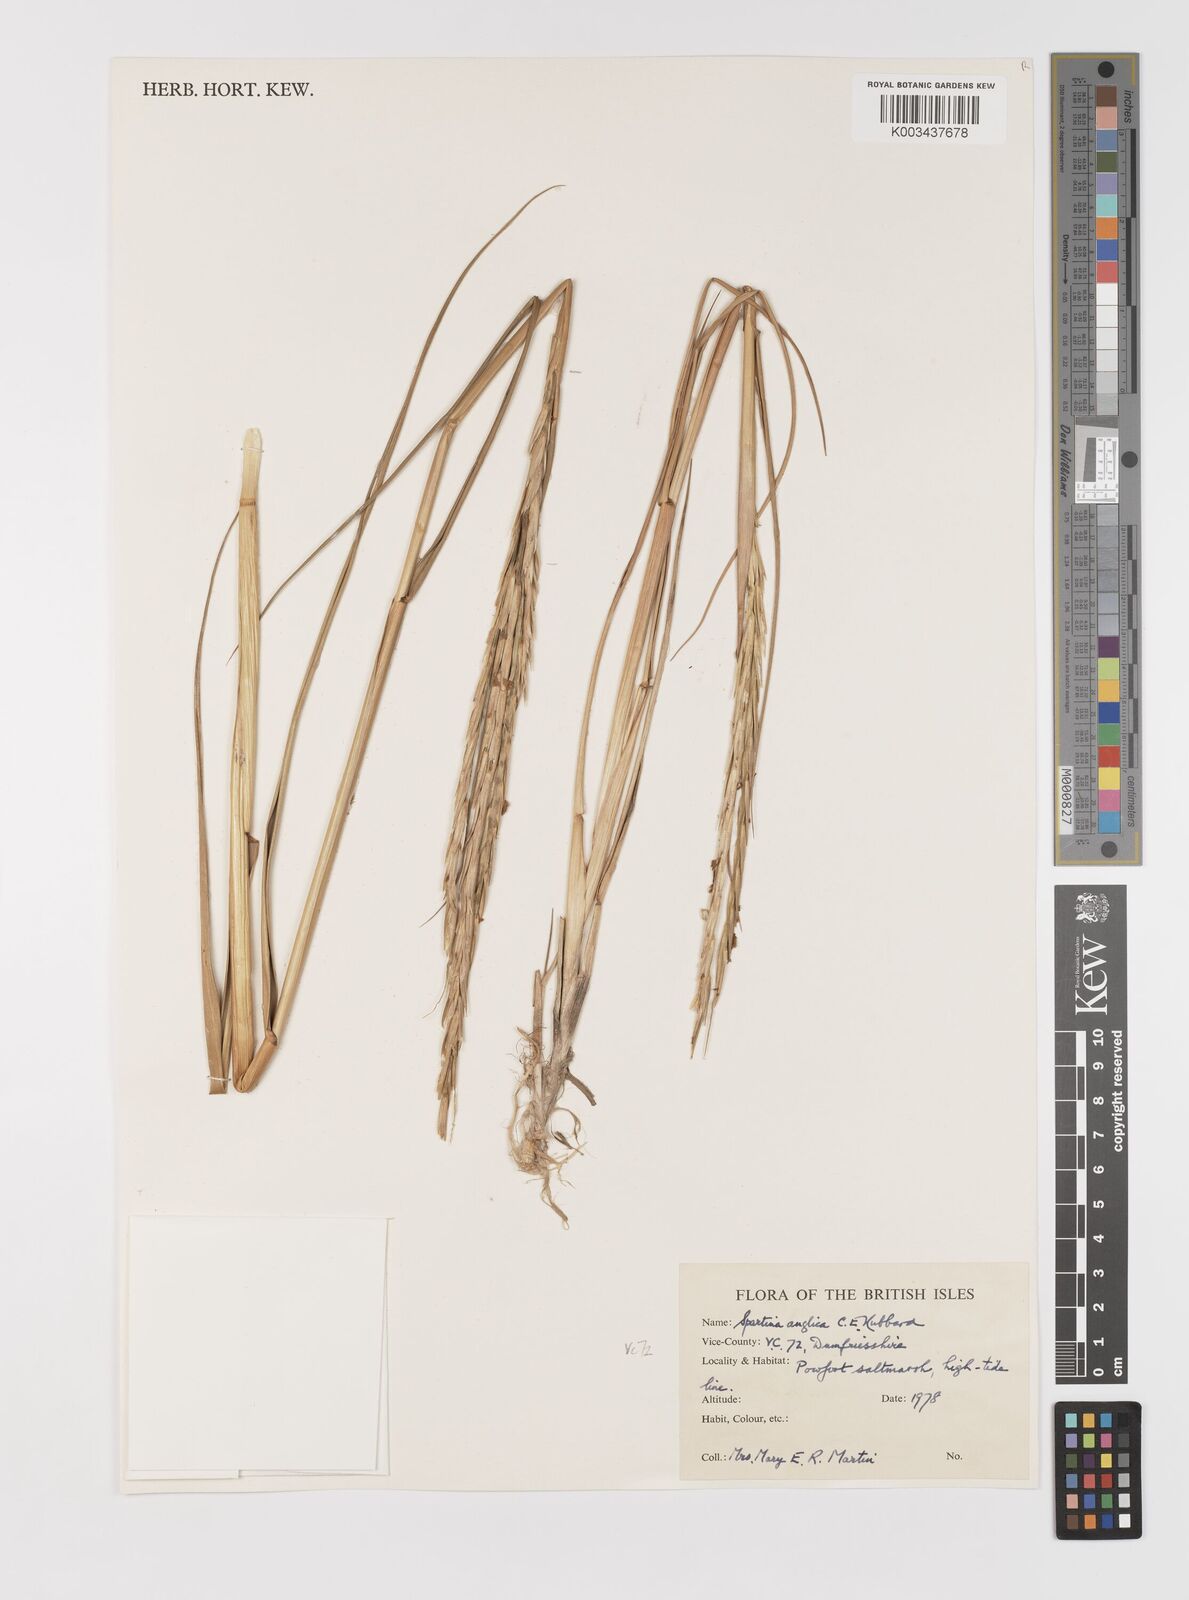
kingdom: Plantae
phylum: Tracheophyta
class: Liliopsida
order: Poales
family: Poaceae
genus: Sporobolus
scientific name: Sporobolus anglicus
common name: English cordgrass
